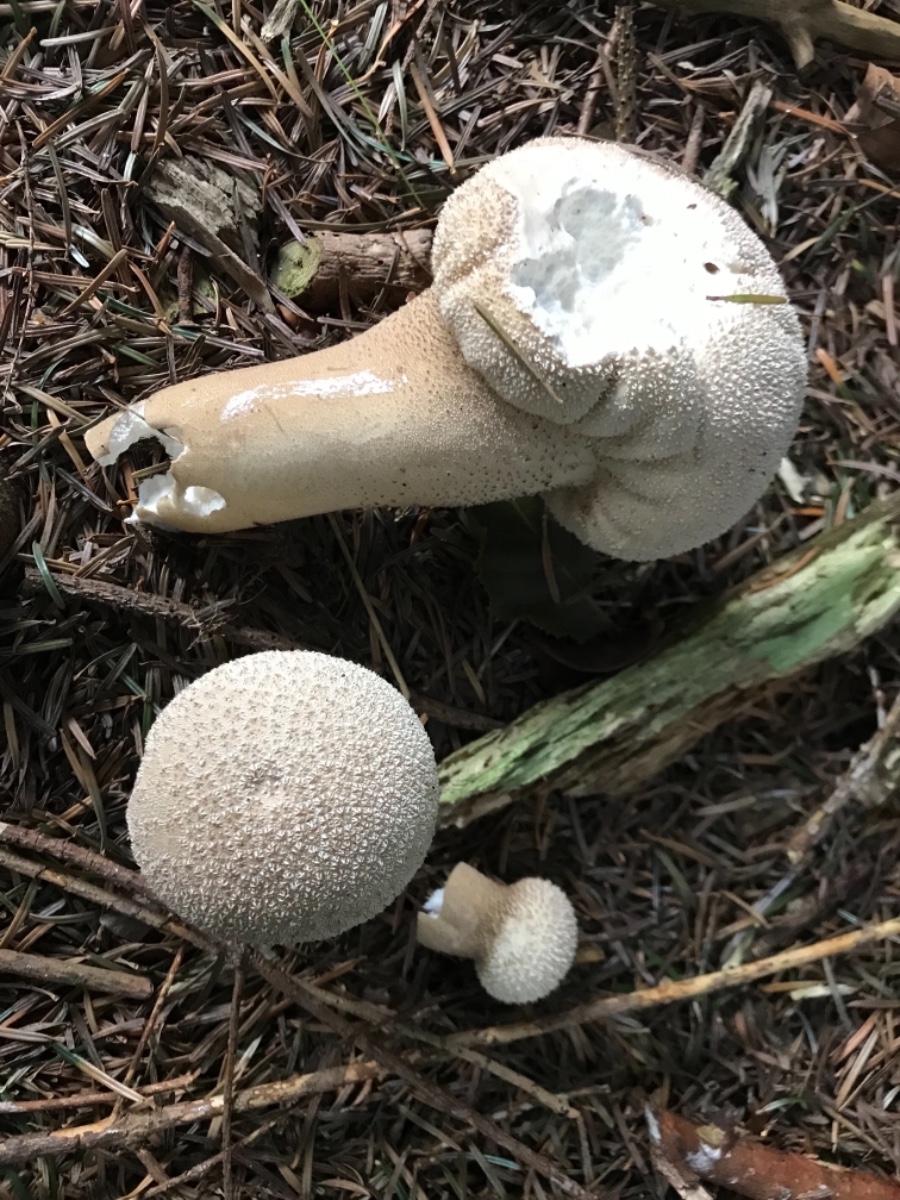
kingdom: Fungi
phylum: Basidiomycota
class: Agaricomycetes
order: Agaricales
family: Lycoperdaceae
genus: Lycoperdon
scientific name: Lycoperdon excipuliforme
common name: højstokket støvbold
